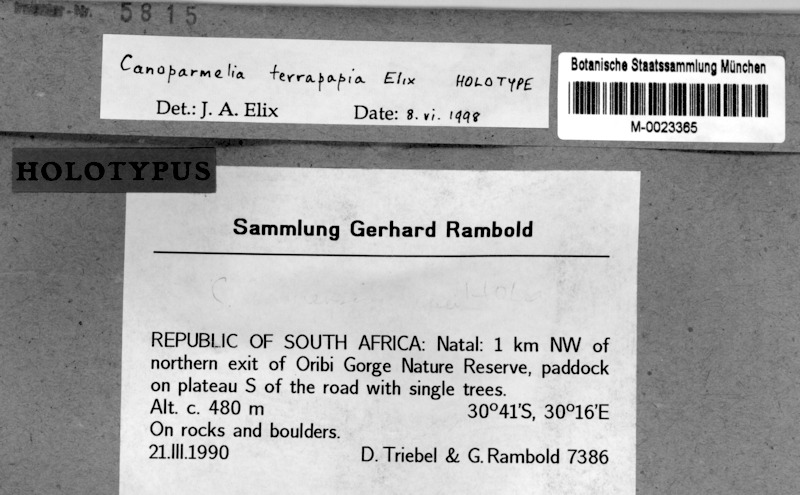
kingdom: Fungi
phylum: Ascomycota
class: Lecanoromycetes
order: Lecanorales
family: Parmeliaceae
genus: Canoparmelia
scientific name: Canoparmelia
